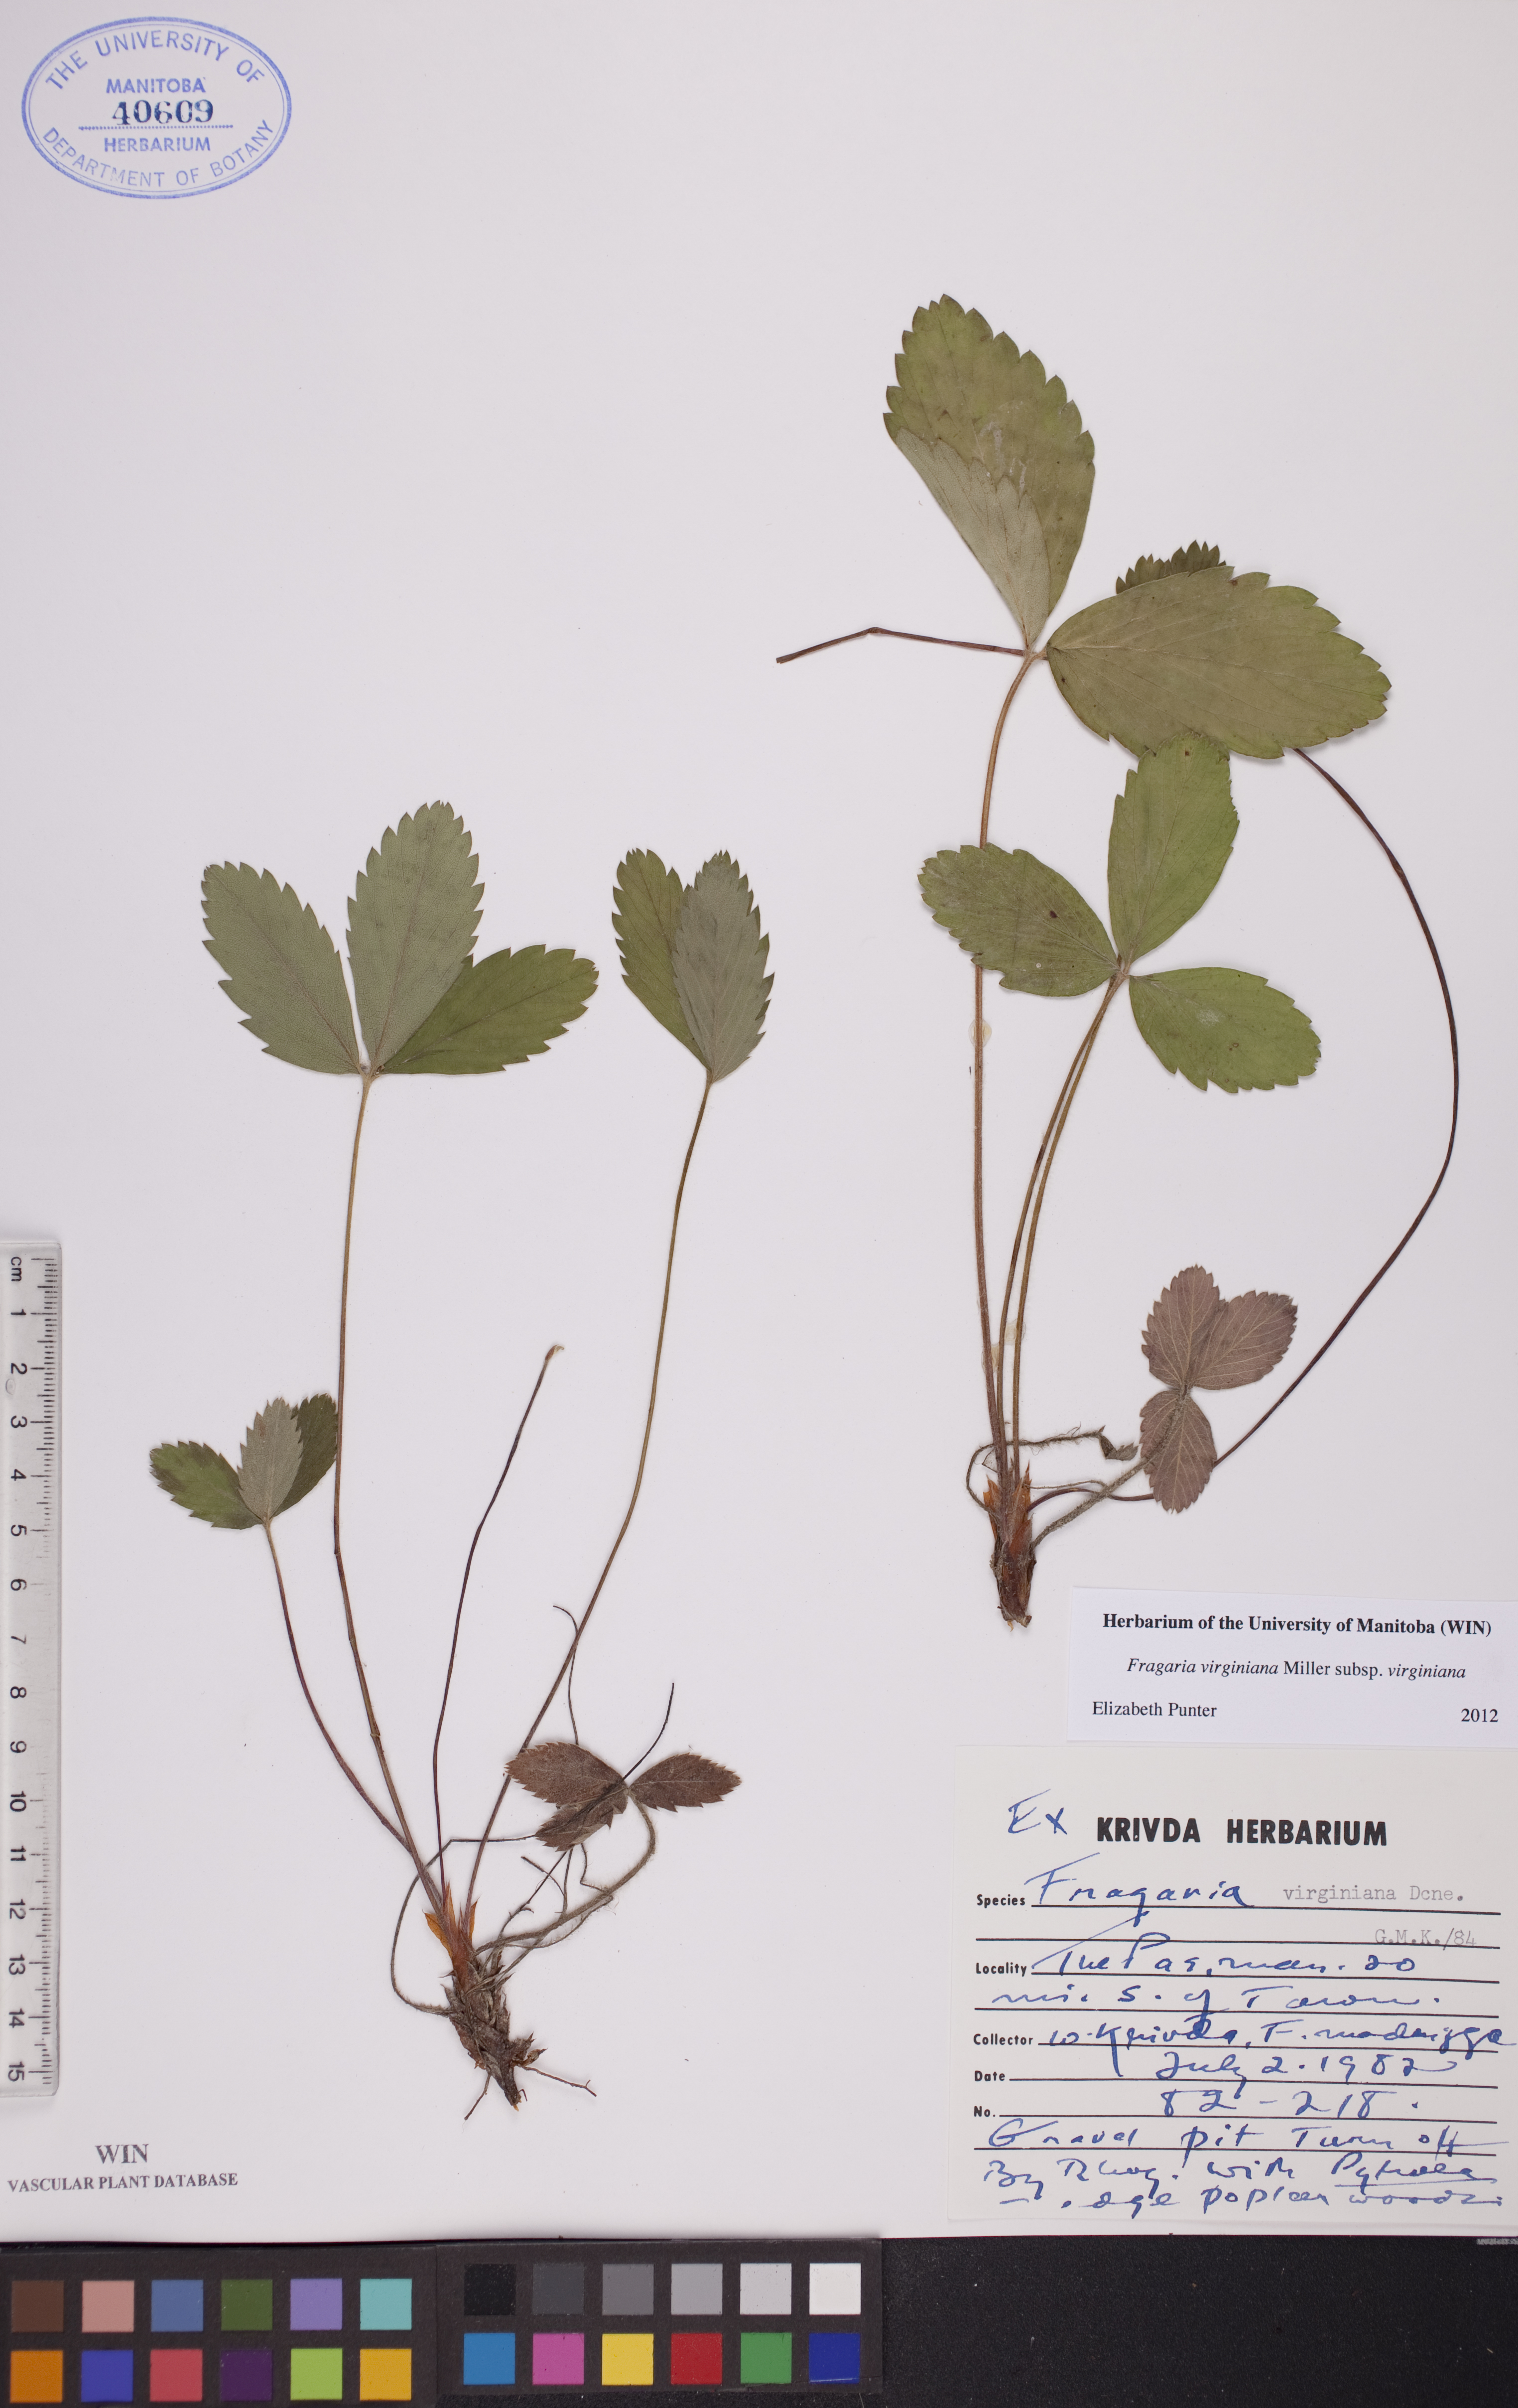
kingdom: Plantae
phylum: Tracheophyta
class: Magnoliopsida
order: Rosales
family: Rosaceae
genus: Fragaria
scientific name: Fragaria virginiana
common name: Thickleaved wild strawberry
